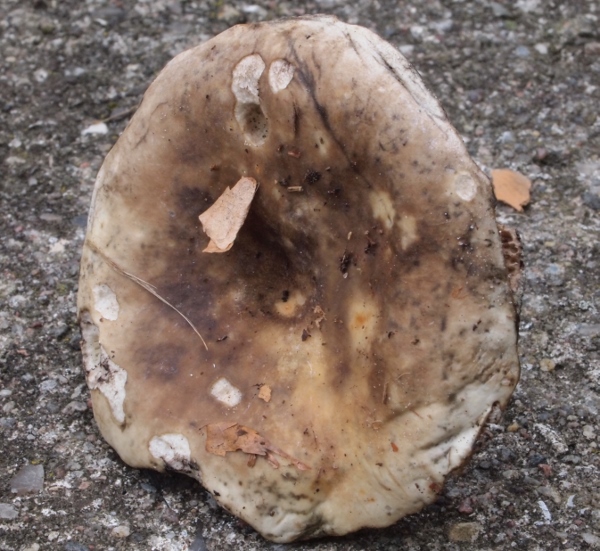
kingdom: Fungi
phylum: Basidiomycota
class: Agaricomycetes
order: Russulales
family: Russulaceae
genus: Russula
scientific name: Russula densifolia
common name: tætbladet skørhat
